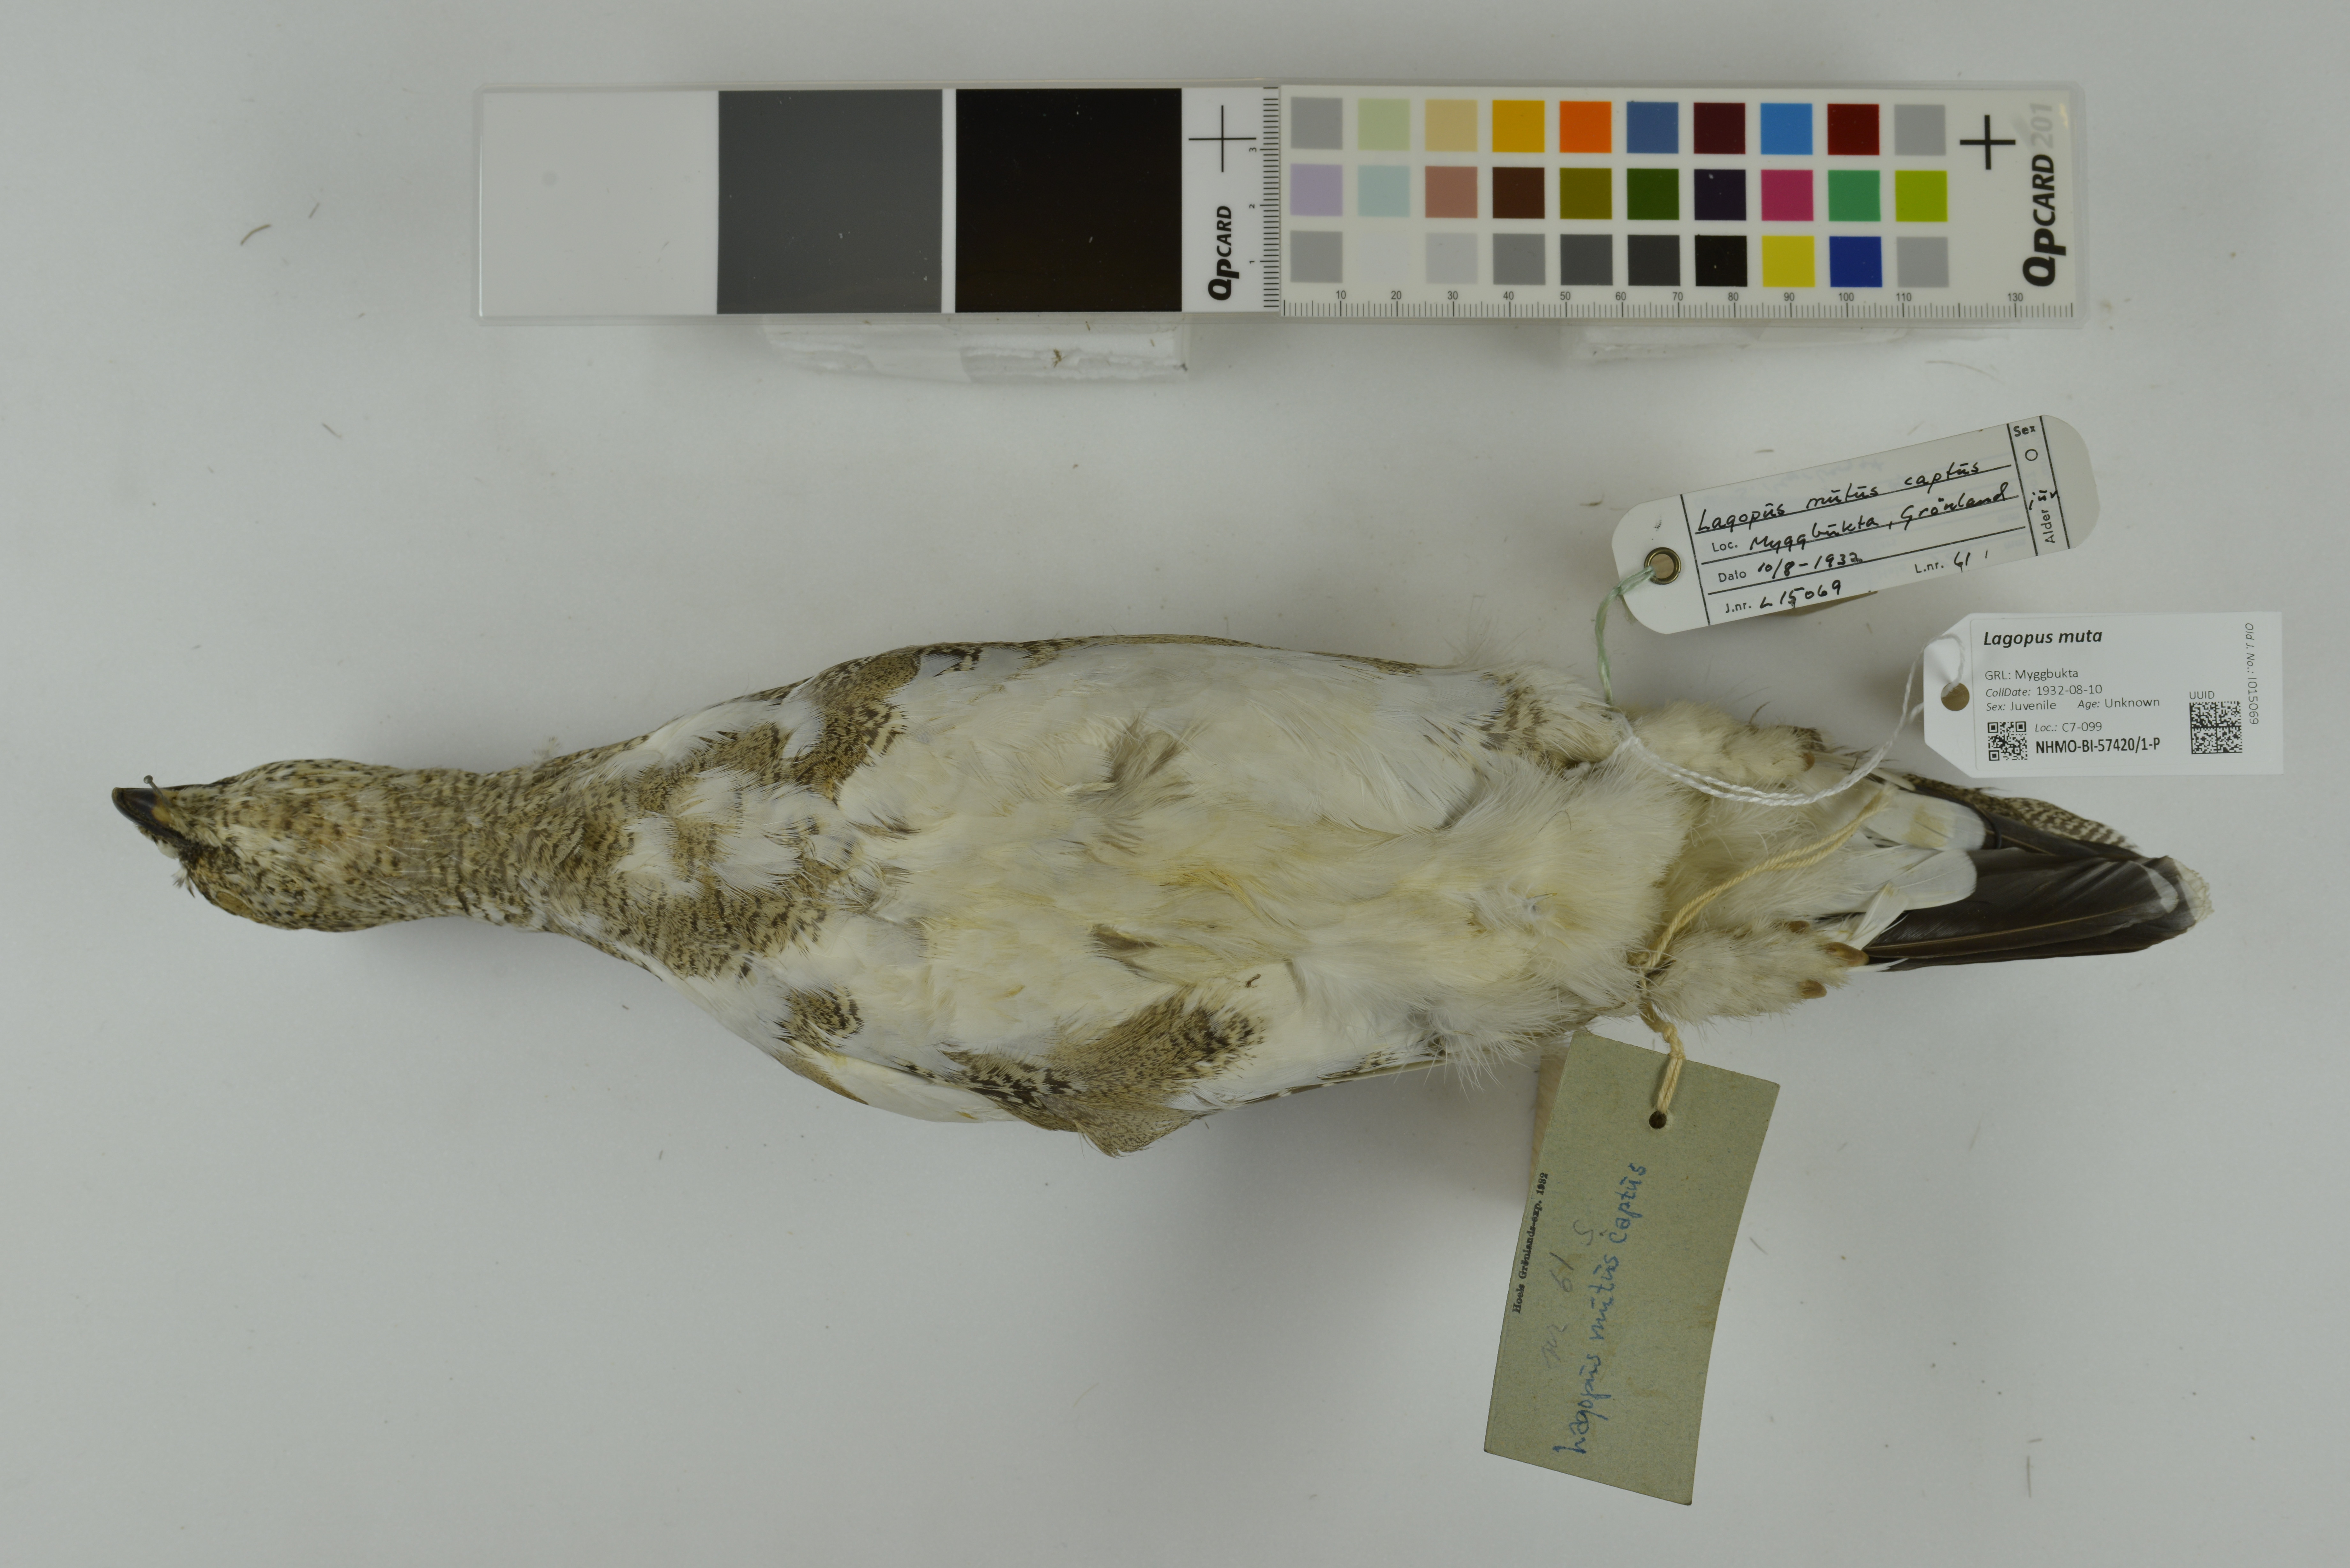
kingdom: Animalia
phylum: Chordata
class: Aves
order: Galliformes
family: Phasianidae
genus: Lagopus
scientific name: Lagopus muta
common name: Rock ptarmigan
